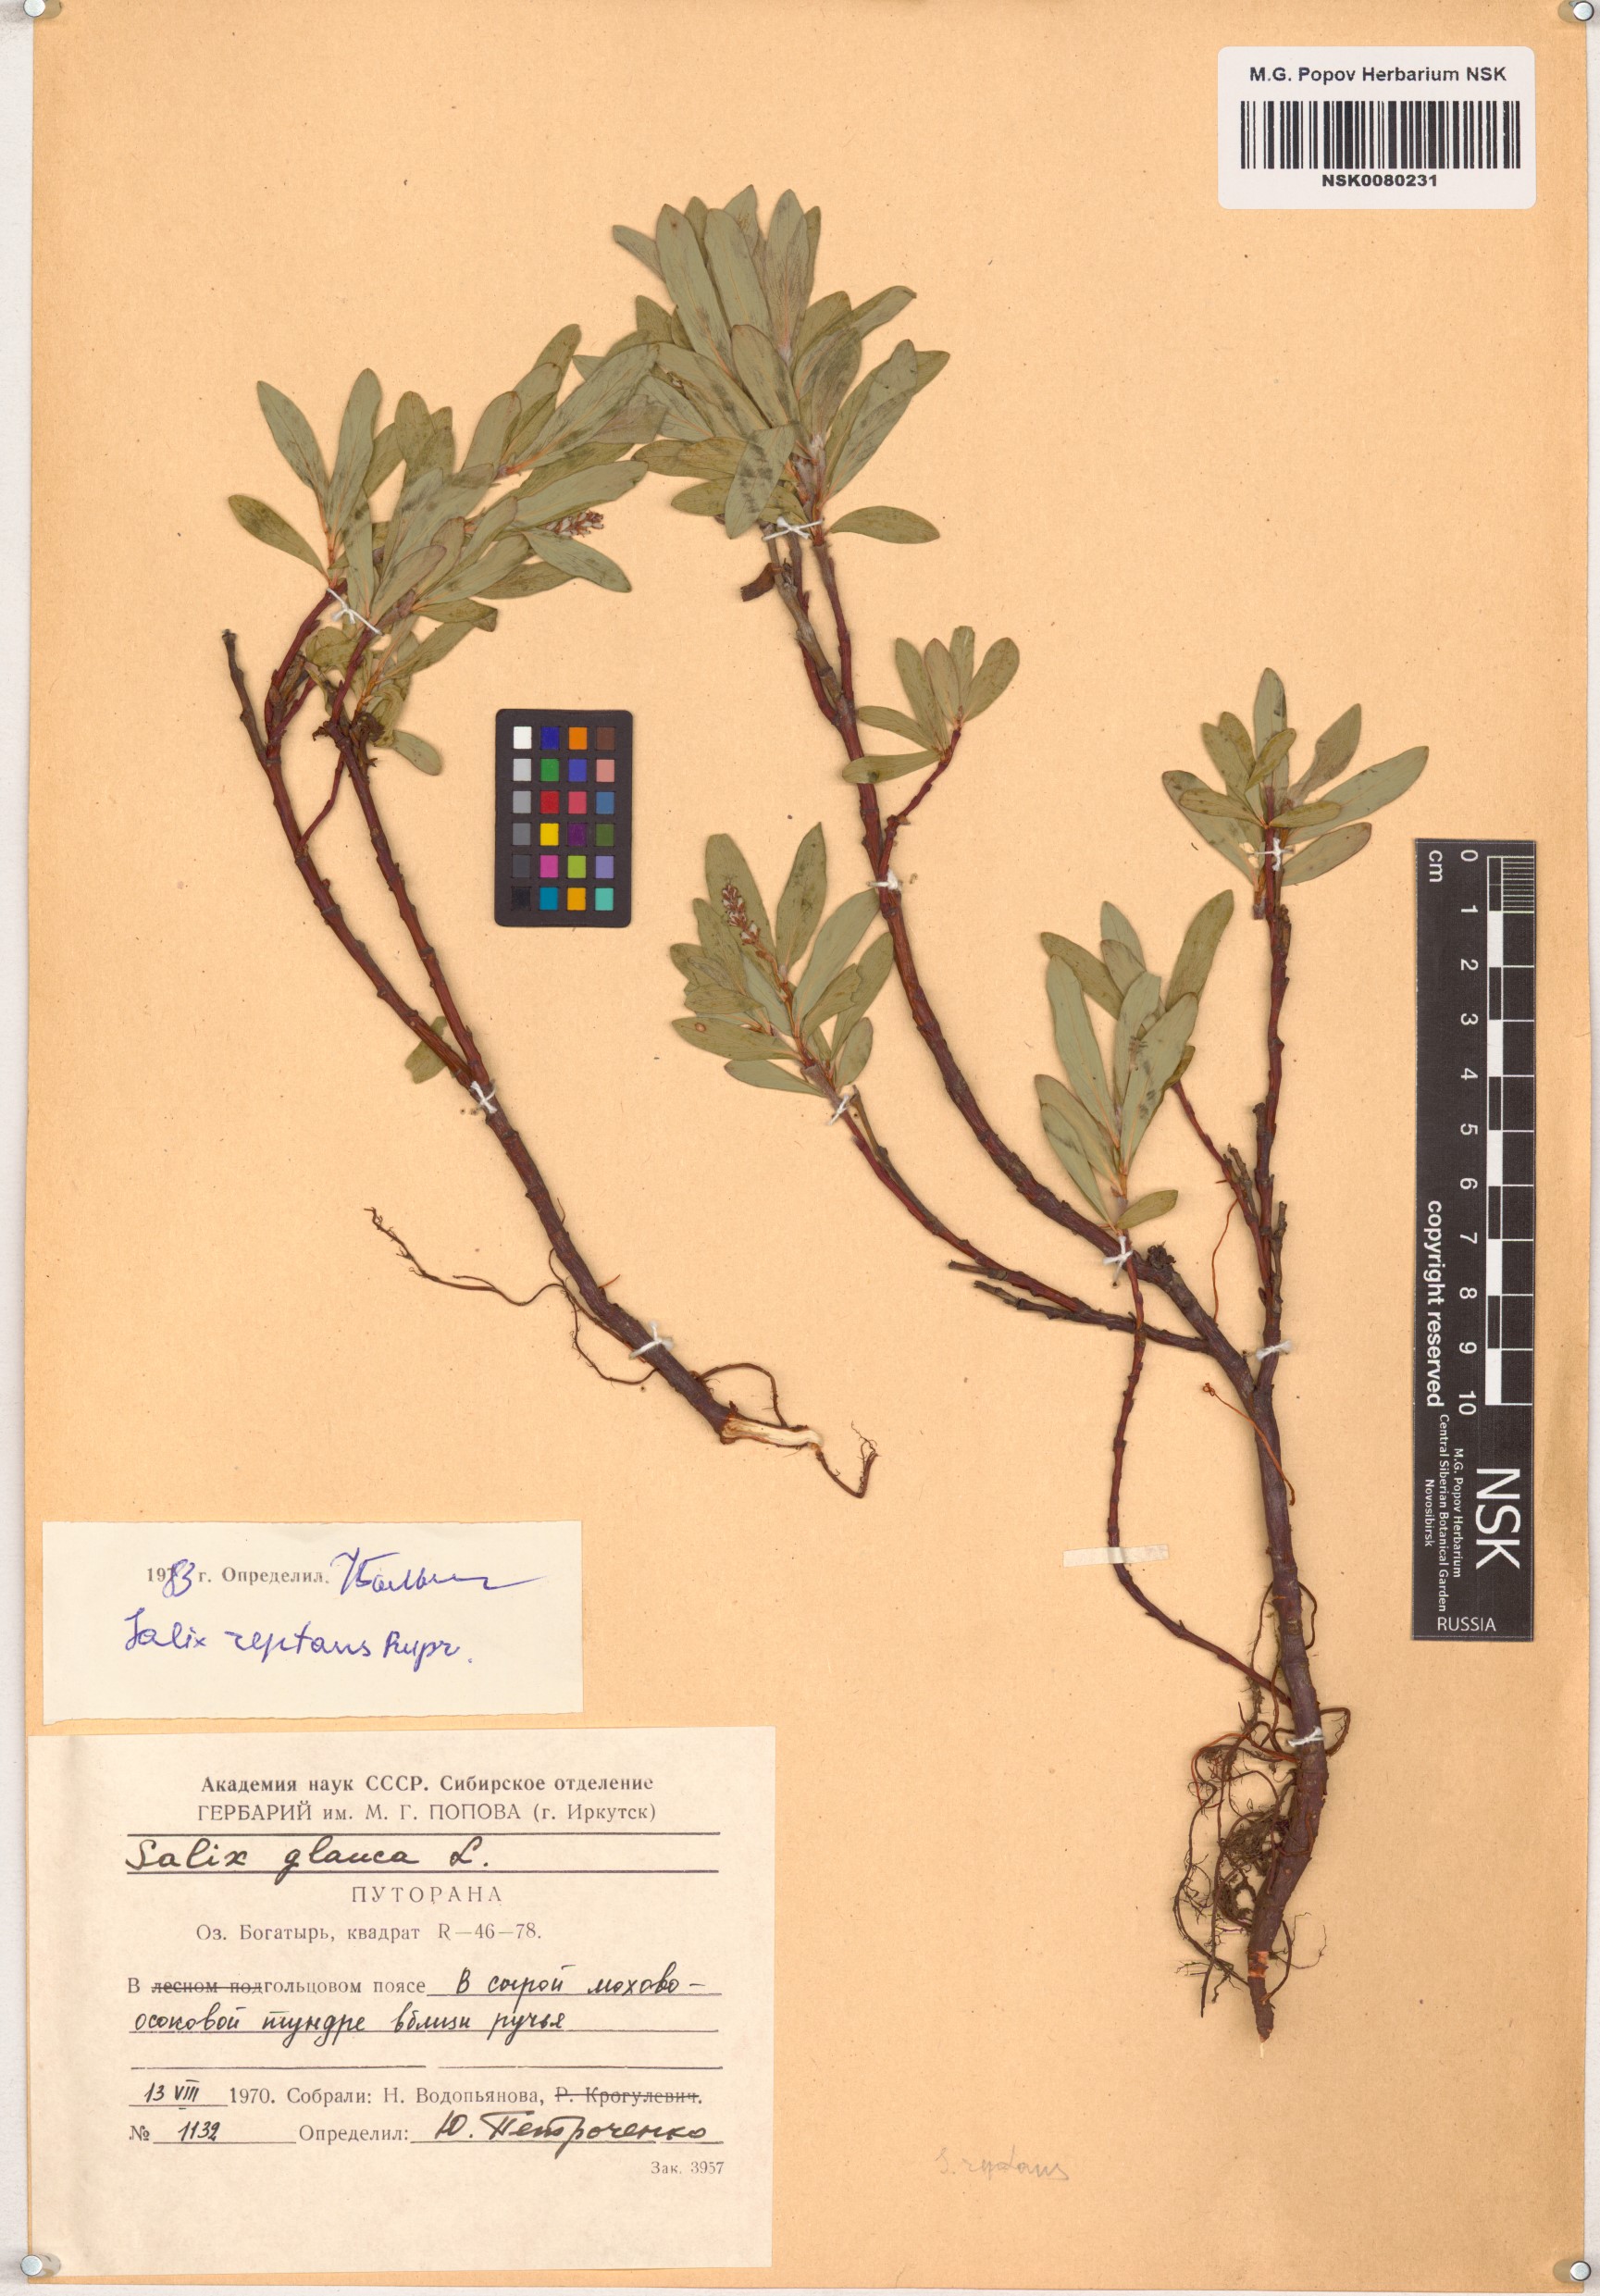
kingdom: Plantae
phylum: Tracheophyta
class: Magnoliopsida
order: Malpighiales
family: Salicaceae
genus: Salix
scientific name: Salix reptans
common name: Arctic creeping willow
